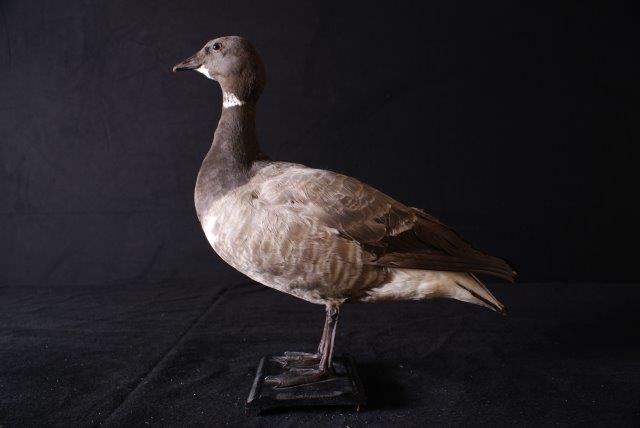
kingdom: Animalia
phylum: Chordata
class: Aves
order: Anseriformes
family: Anatidae
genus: Branta
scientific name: Branta bernicla
